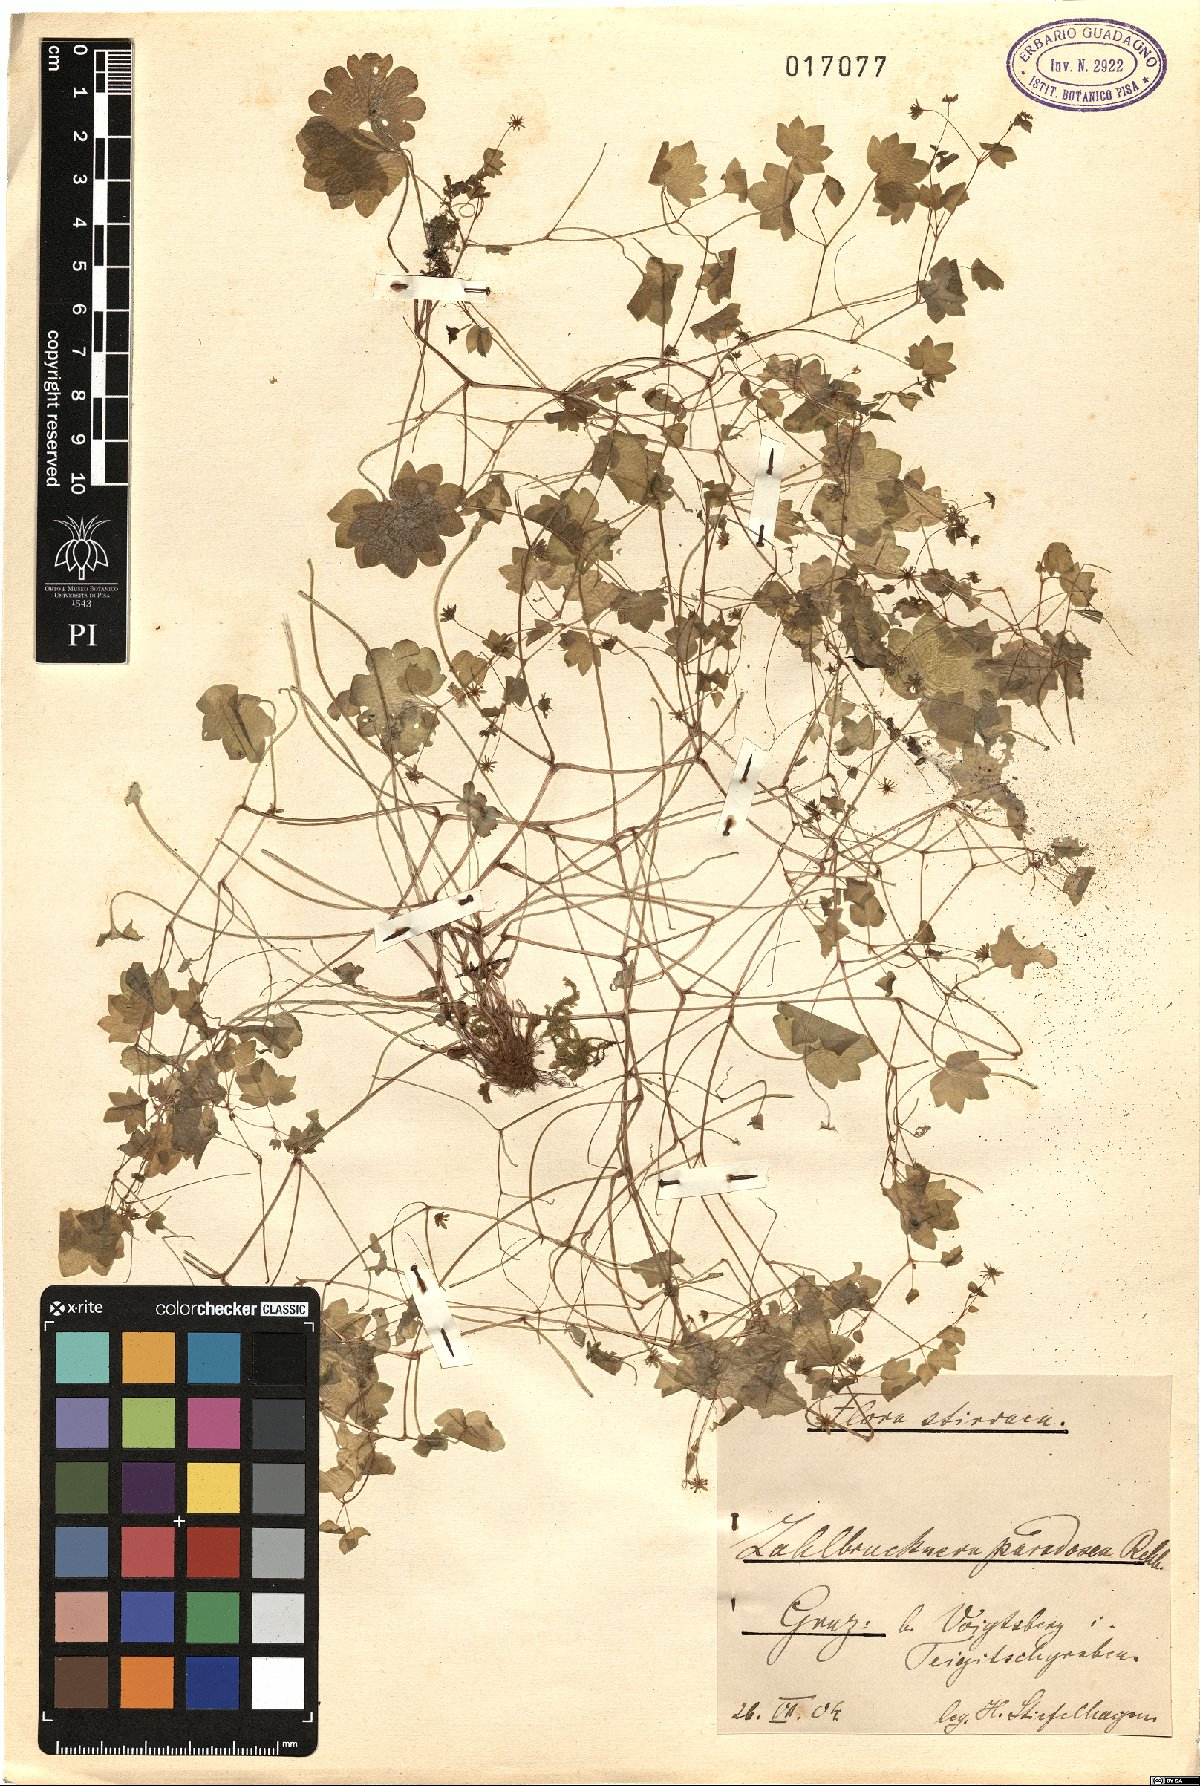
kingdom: Plantae
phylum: Tracheophyta
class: Magnoliopsida
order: Saxifragales
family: Saxifragaceae
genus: Saxifraga
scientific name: Saxifraga paradoxa
